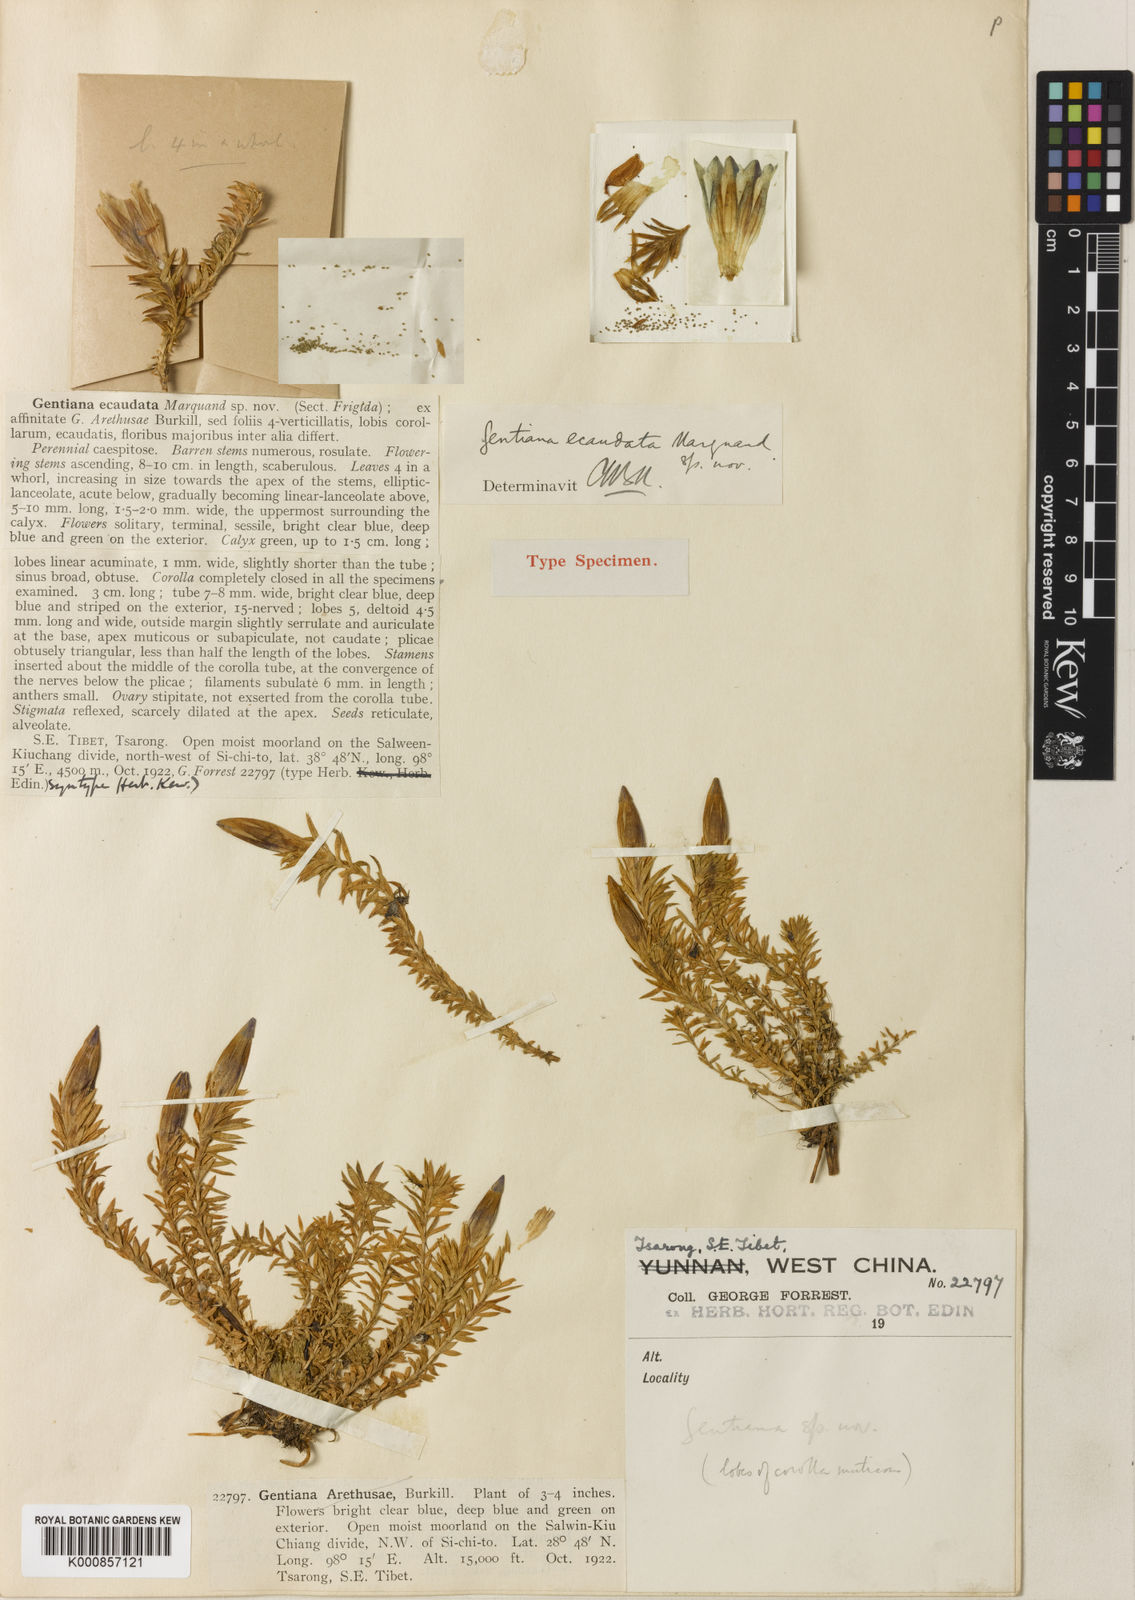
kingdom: Plantae
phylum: Tracheophyta
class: Magnoliopsida
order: Gentianales
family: Gentianaceae
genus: Gentiana
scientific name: Gentiana ecaudata
